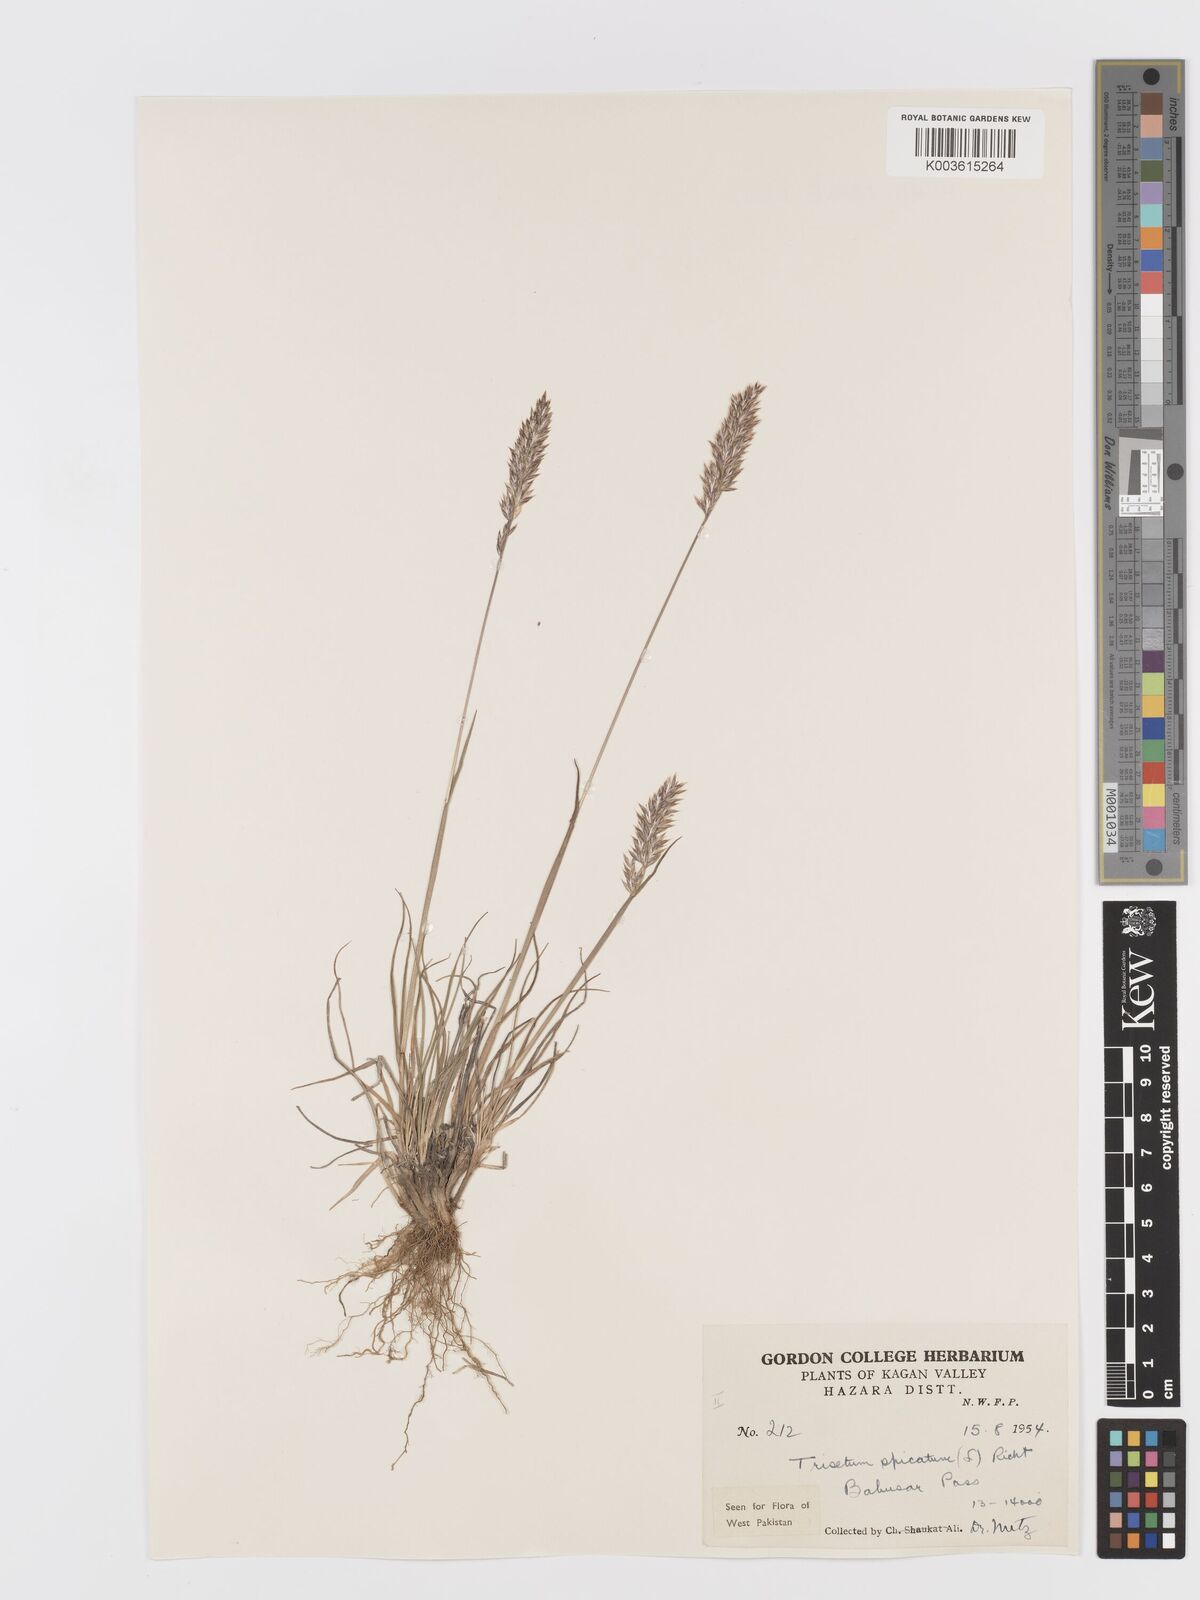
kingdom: Plantae
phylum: Tracheophyta
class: Liliopsida
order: Poales
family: Poaceae
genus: Koeleria
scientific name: Koeleria spicata
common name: Mountain trisetum
